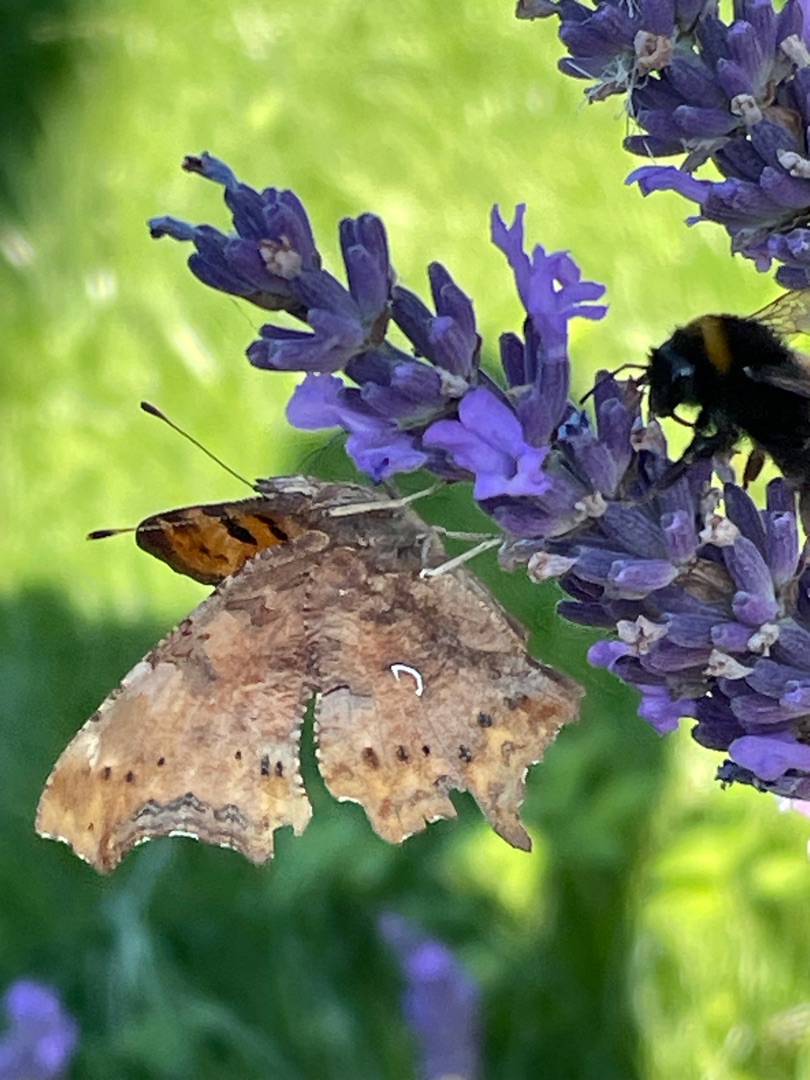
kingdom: Animalia
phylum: Arthropoda
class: Insecta
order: Lepidoptera
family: Nymphalidae
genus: Polygonia
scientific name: Polygonia c-album
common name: Det hvide C
